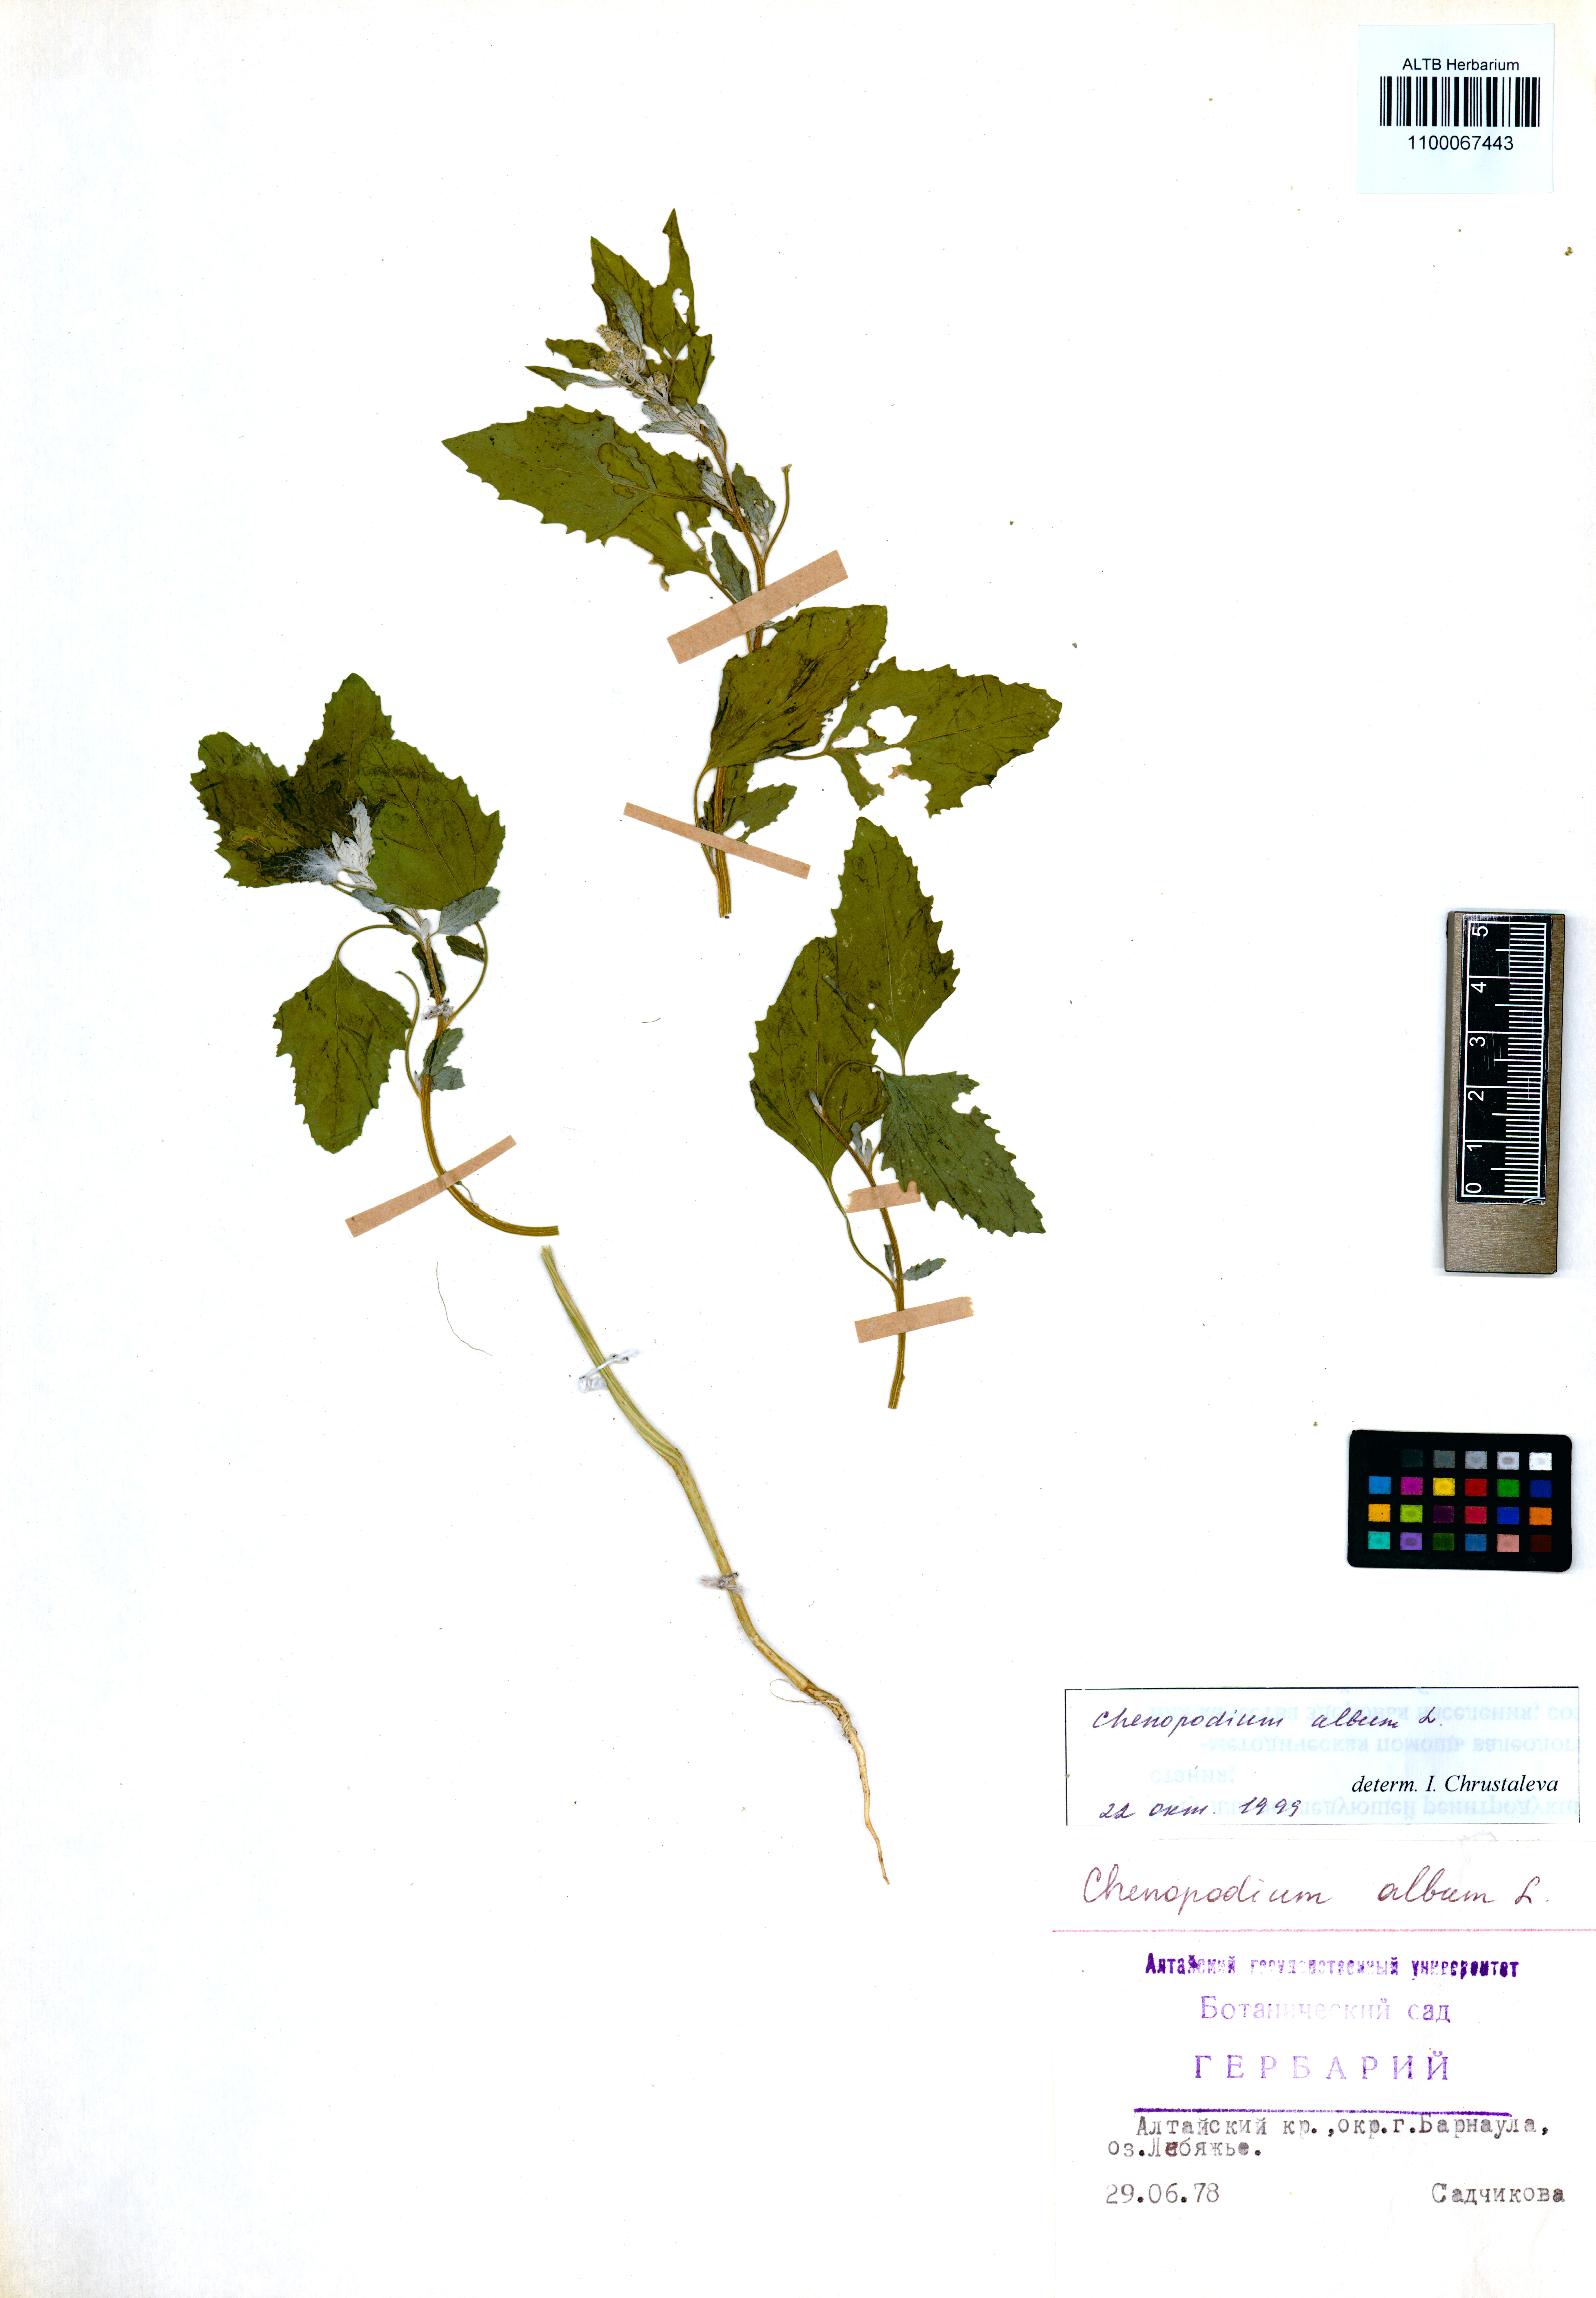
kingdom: Plantae
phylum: Tracheophyta
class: Magnoliopsida
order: Caryophyllales
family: Amaranthaceae
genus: Chenopodium
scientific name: Chenopodium album
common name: Fat-hen
